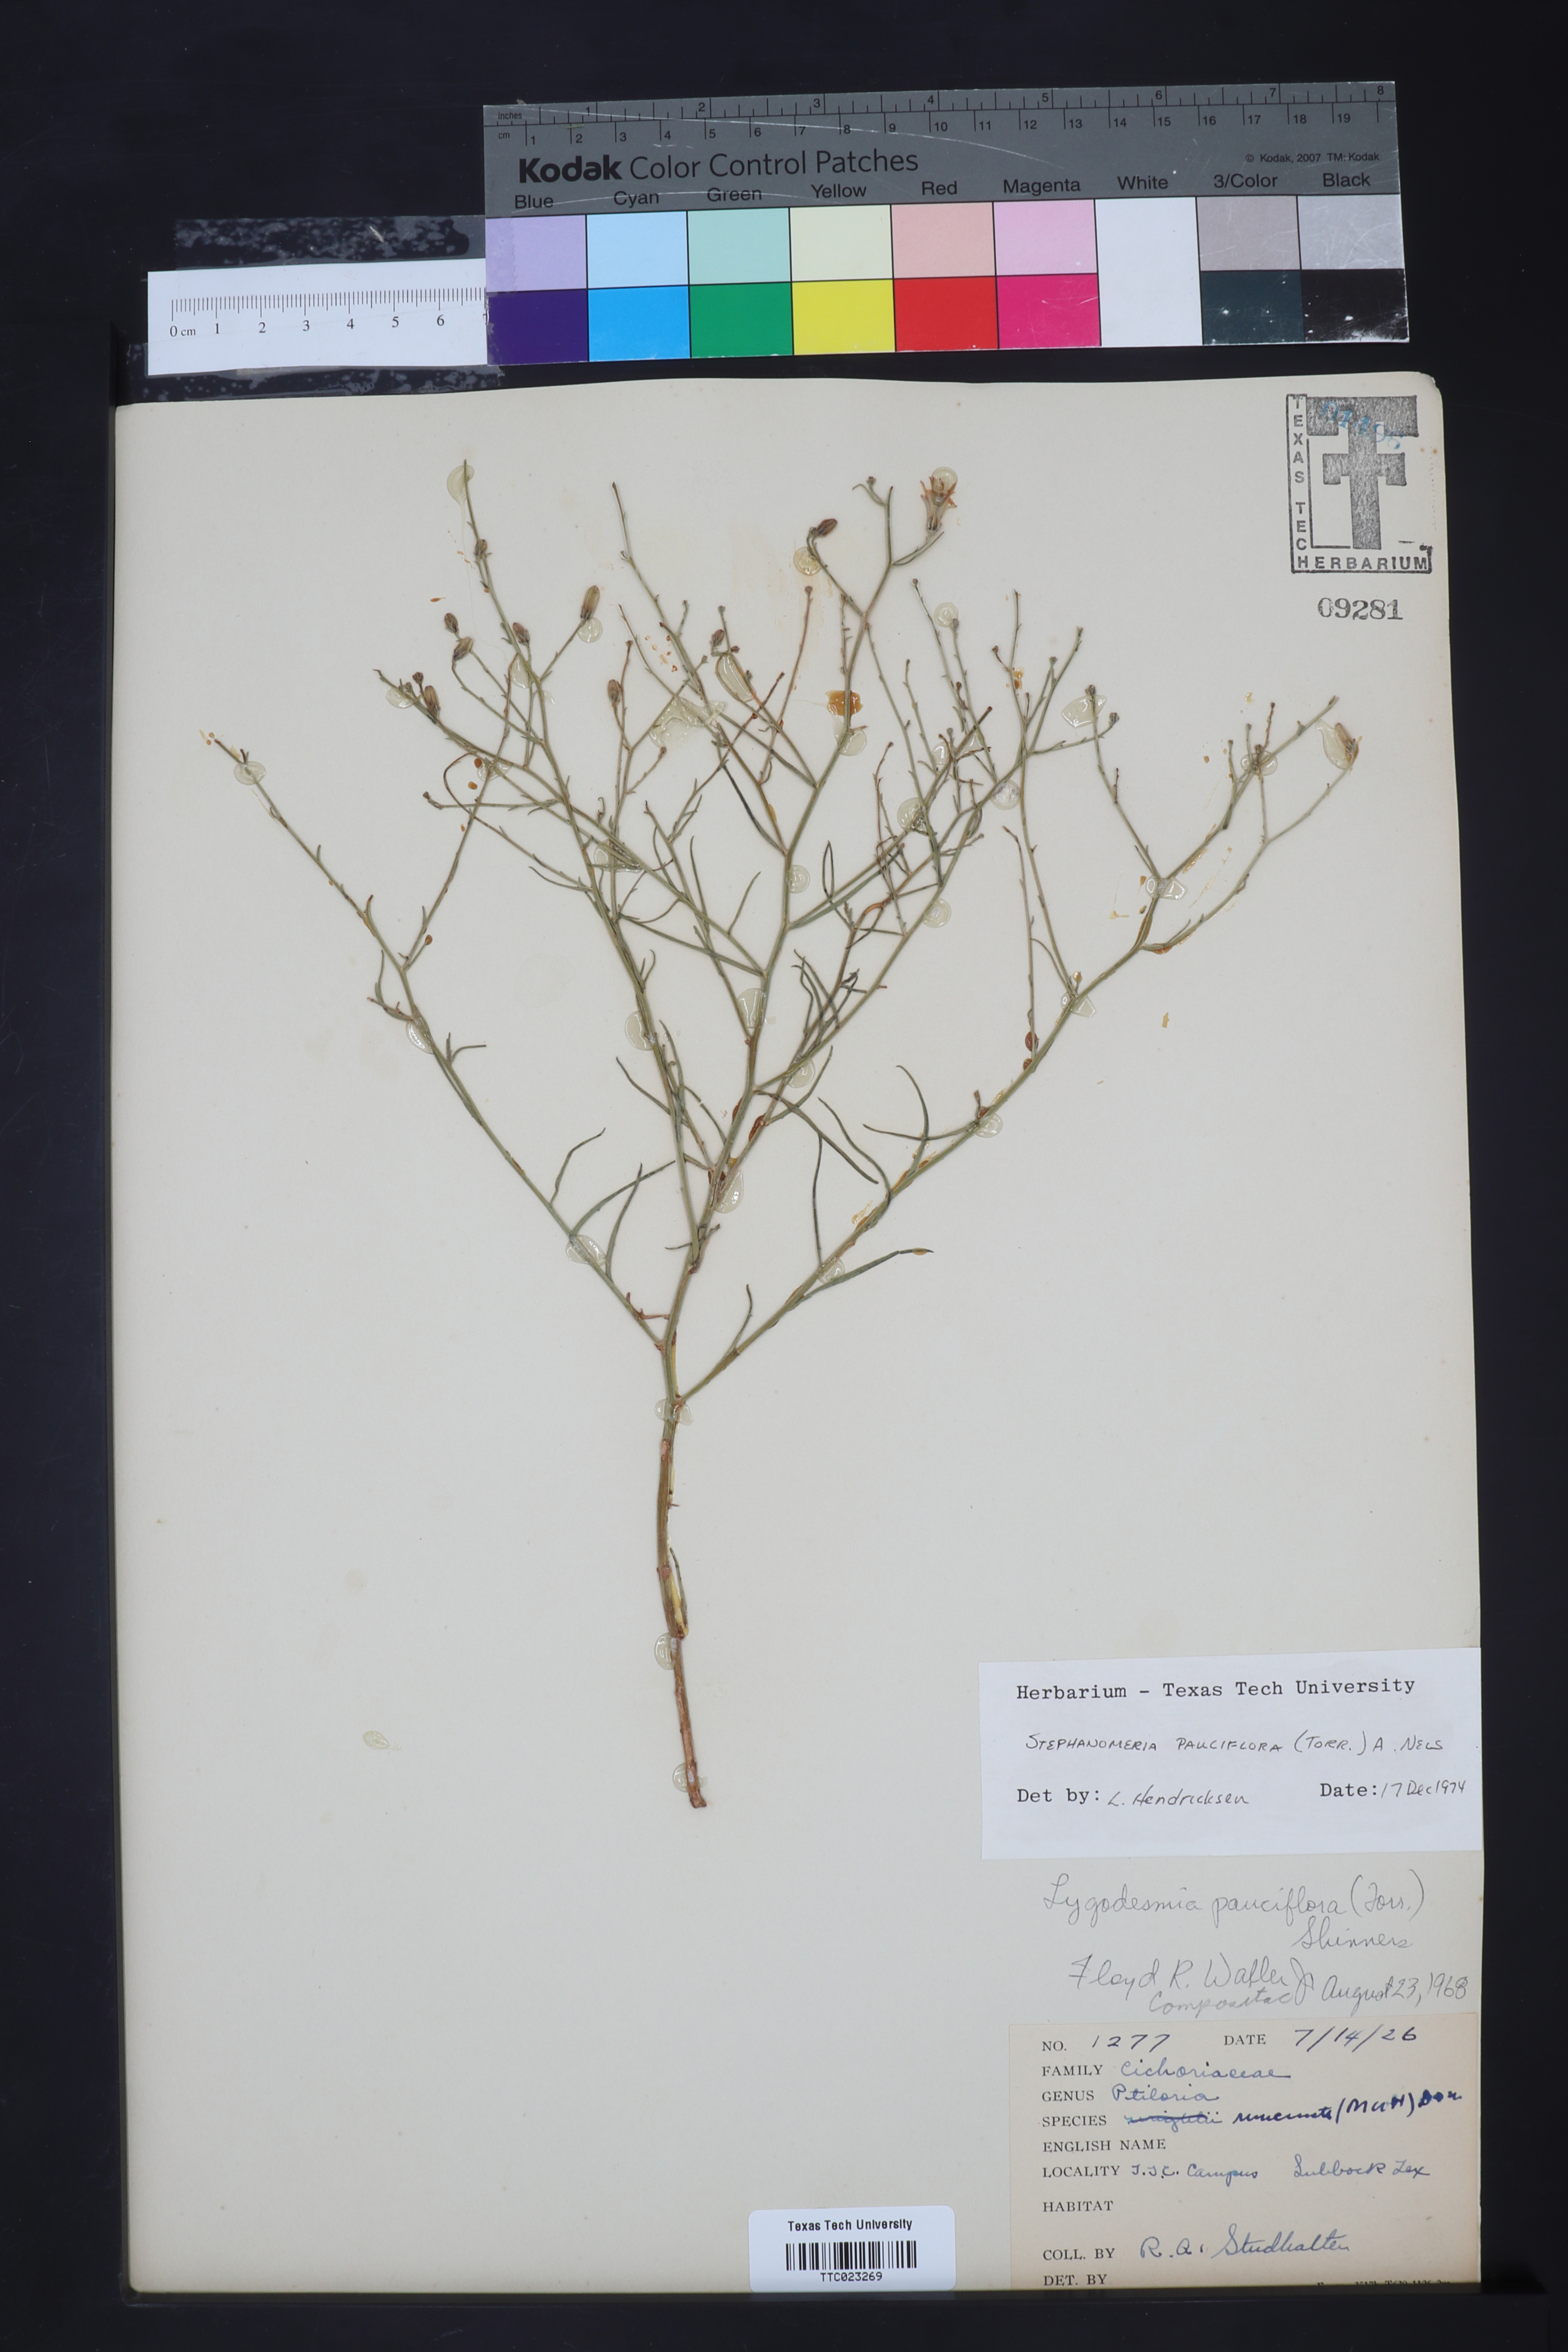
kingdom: Plantae
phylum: Tracheophyta
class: Magnoliopsida
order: Asterales
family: Asteraceae
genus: Stephanomeria
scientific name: Stephanomeria pauciflora
